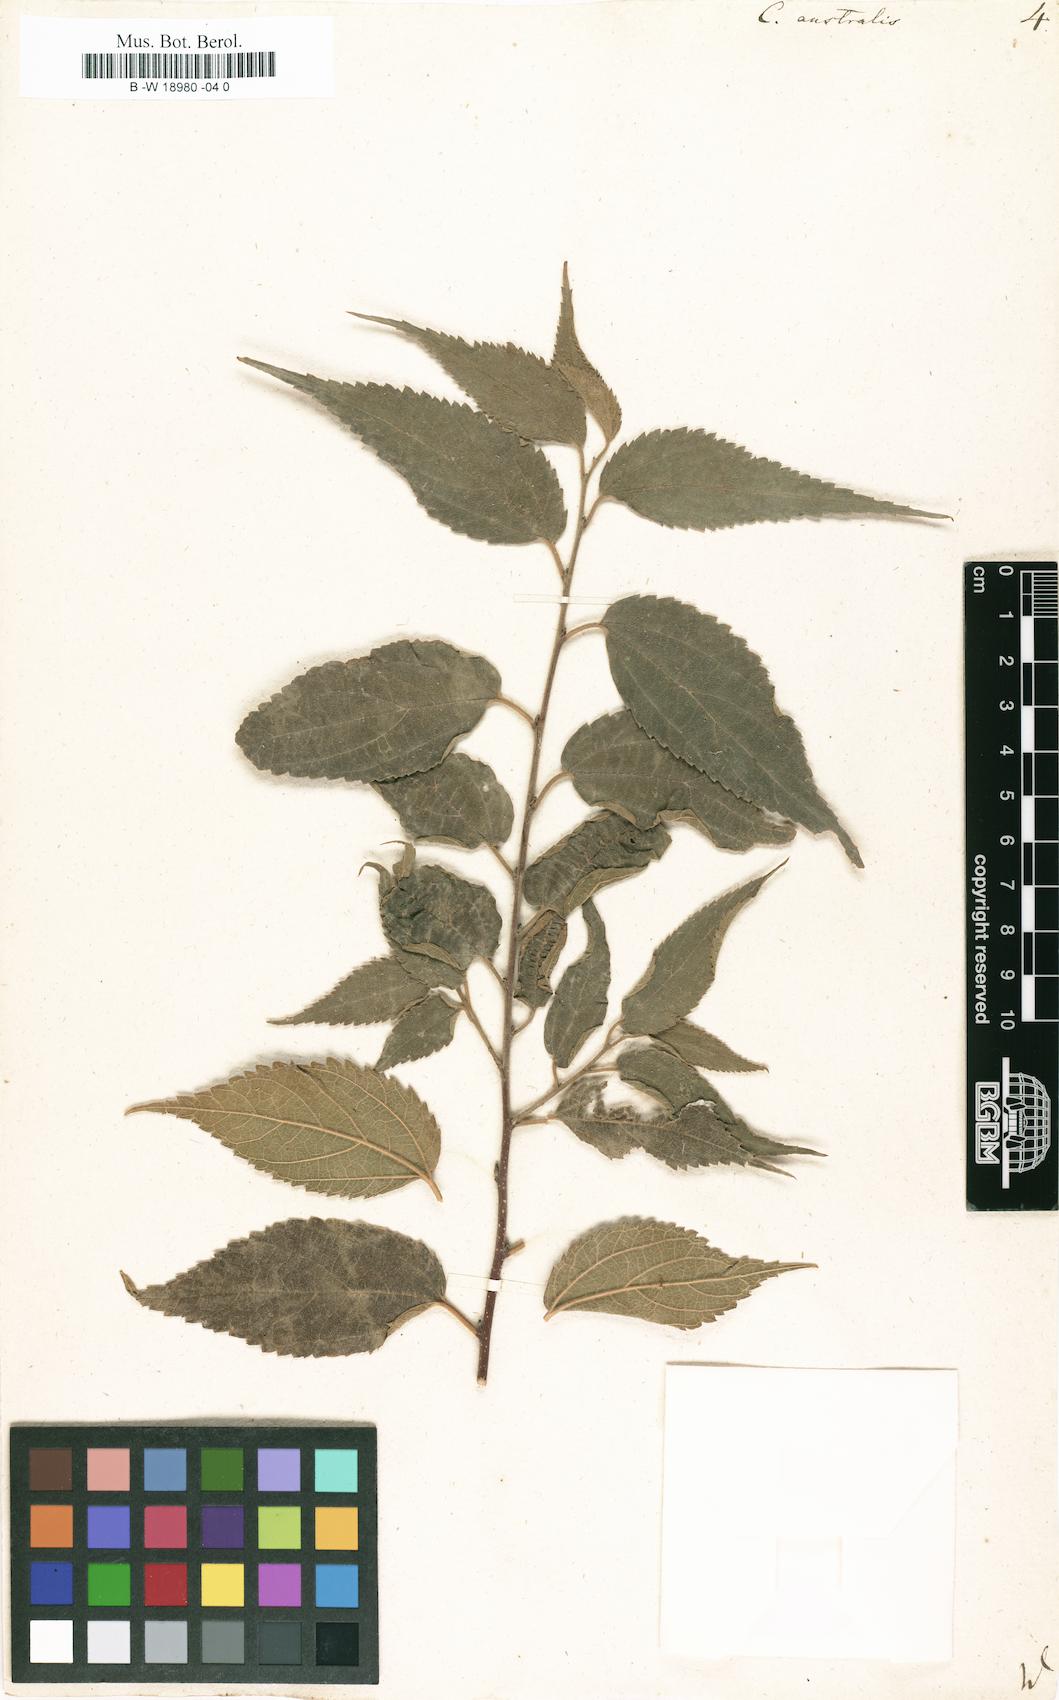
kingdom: Plantae
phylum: Tracheophyta
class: Magnoliopsida
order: Rosales
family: Cannabaceae
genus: Celtis
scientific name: Celtis australis
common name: European hackberry
